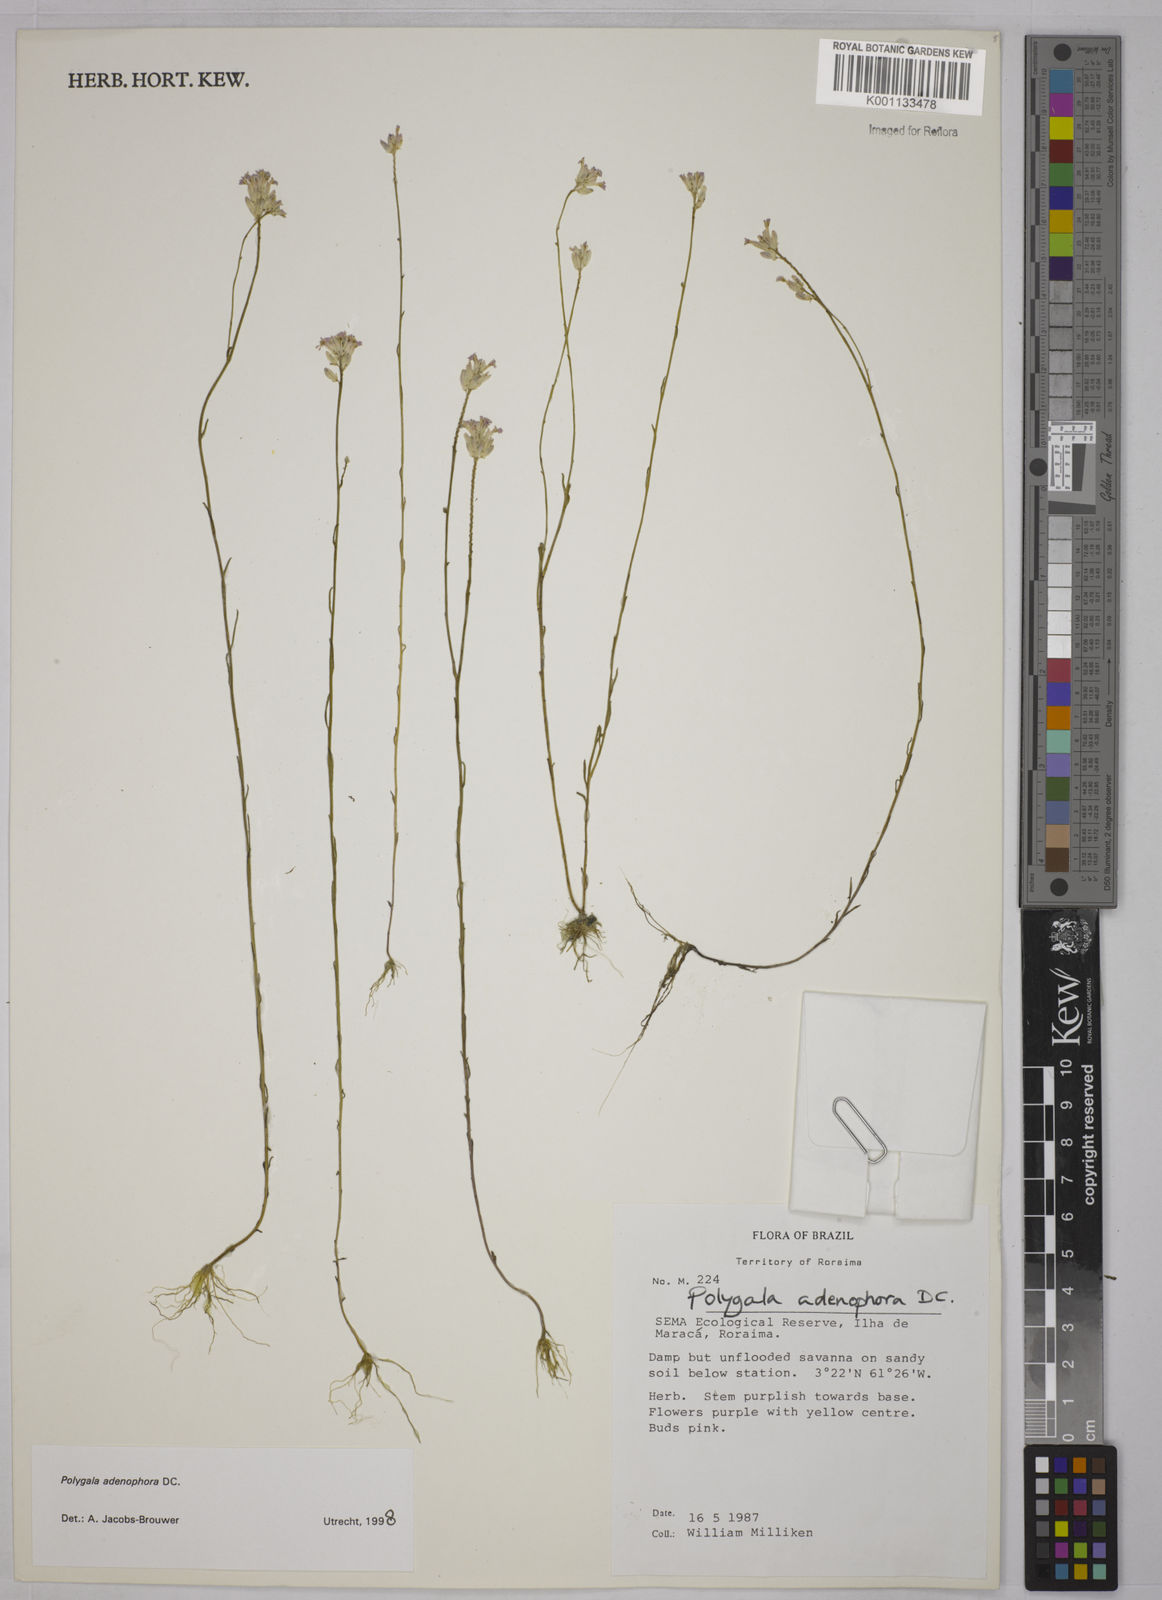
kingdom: Plantae
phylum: Tracheophyta
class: Magnoliopsida
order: Fabales
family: Polygalaceae
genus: Polygala
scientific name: Polygala adenophora
